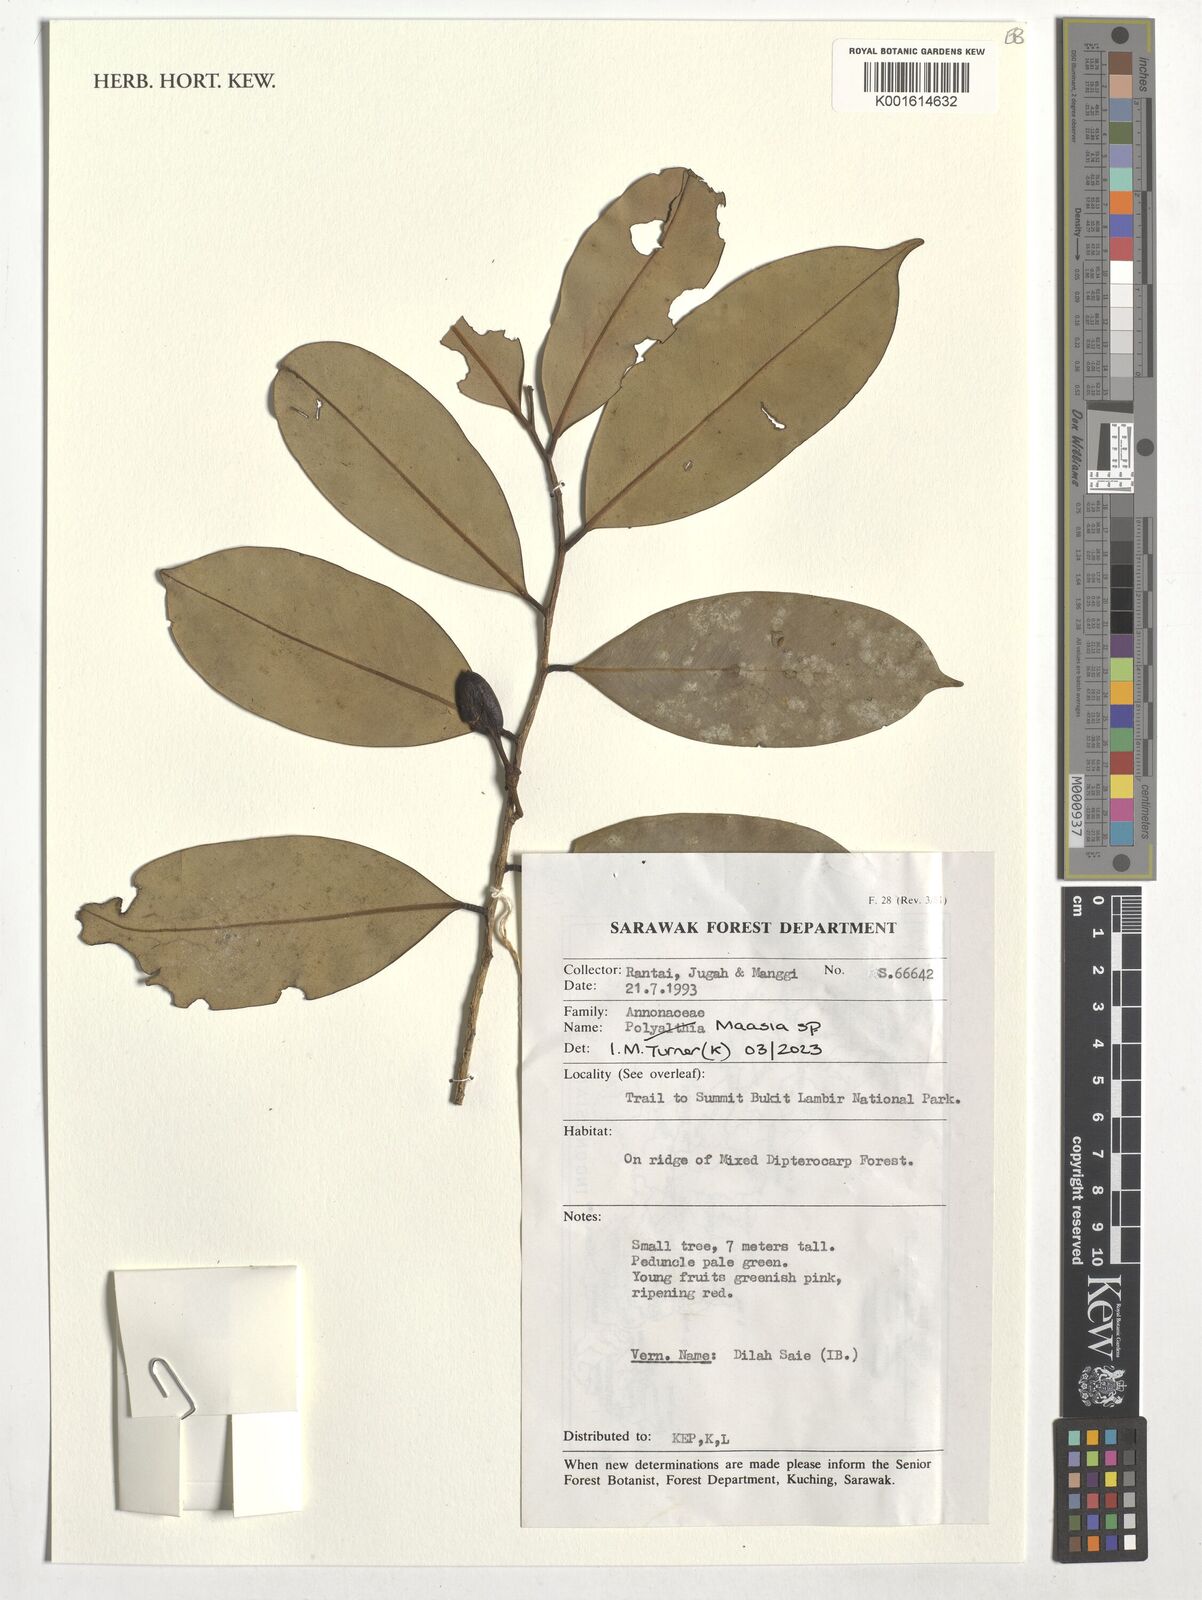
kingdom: Plantae
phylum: Tracheophyta
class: Magnoliopsida
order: Magnoliales
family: Annonaceae
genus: Maasia
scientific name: Maasia
